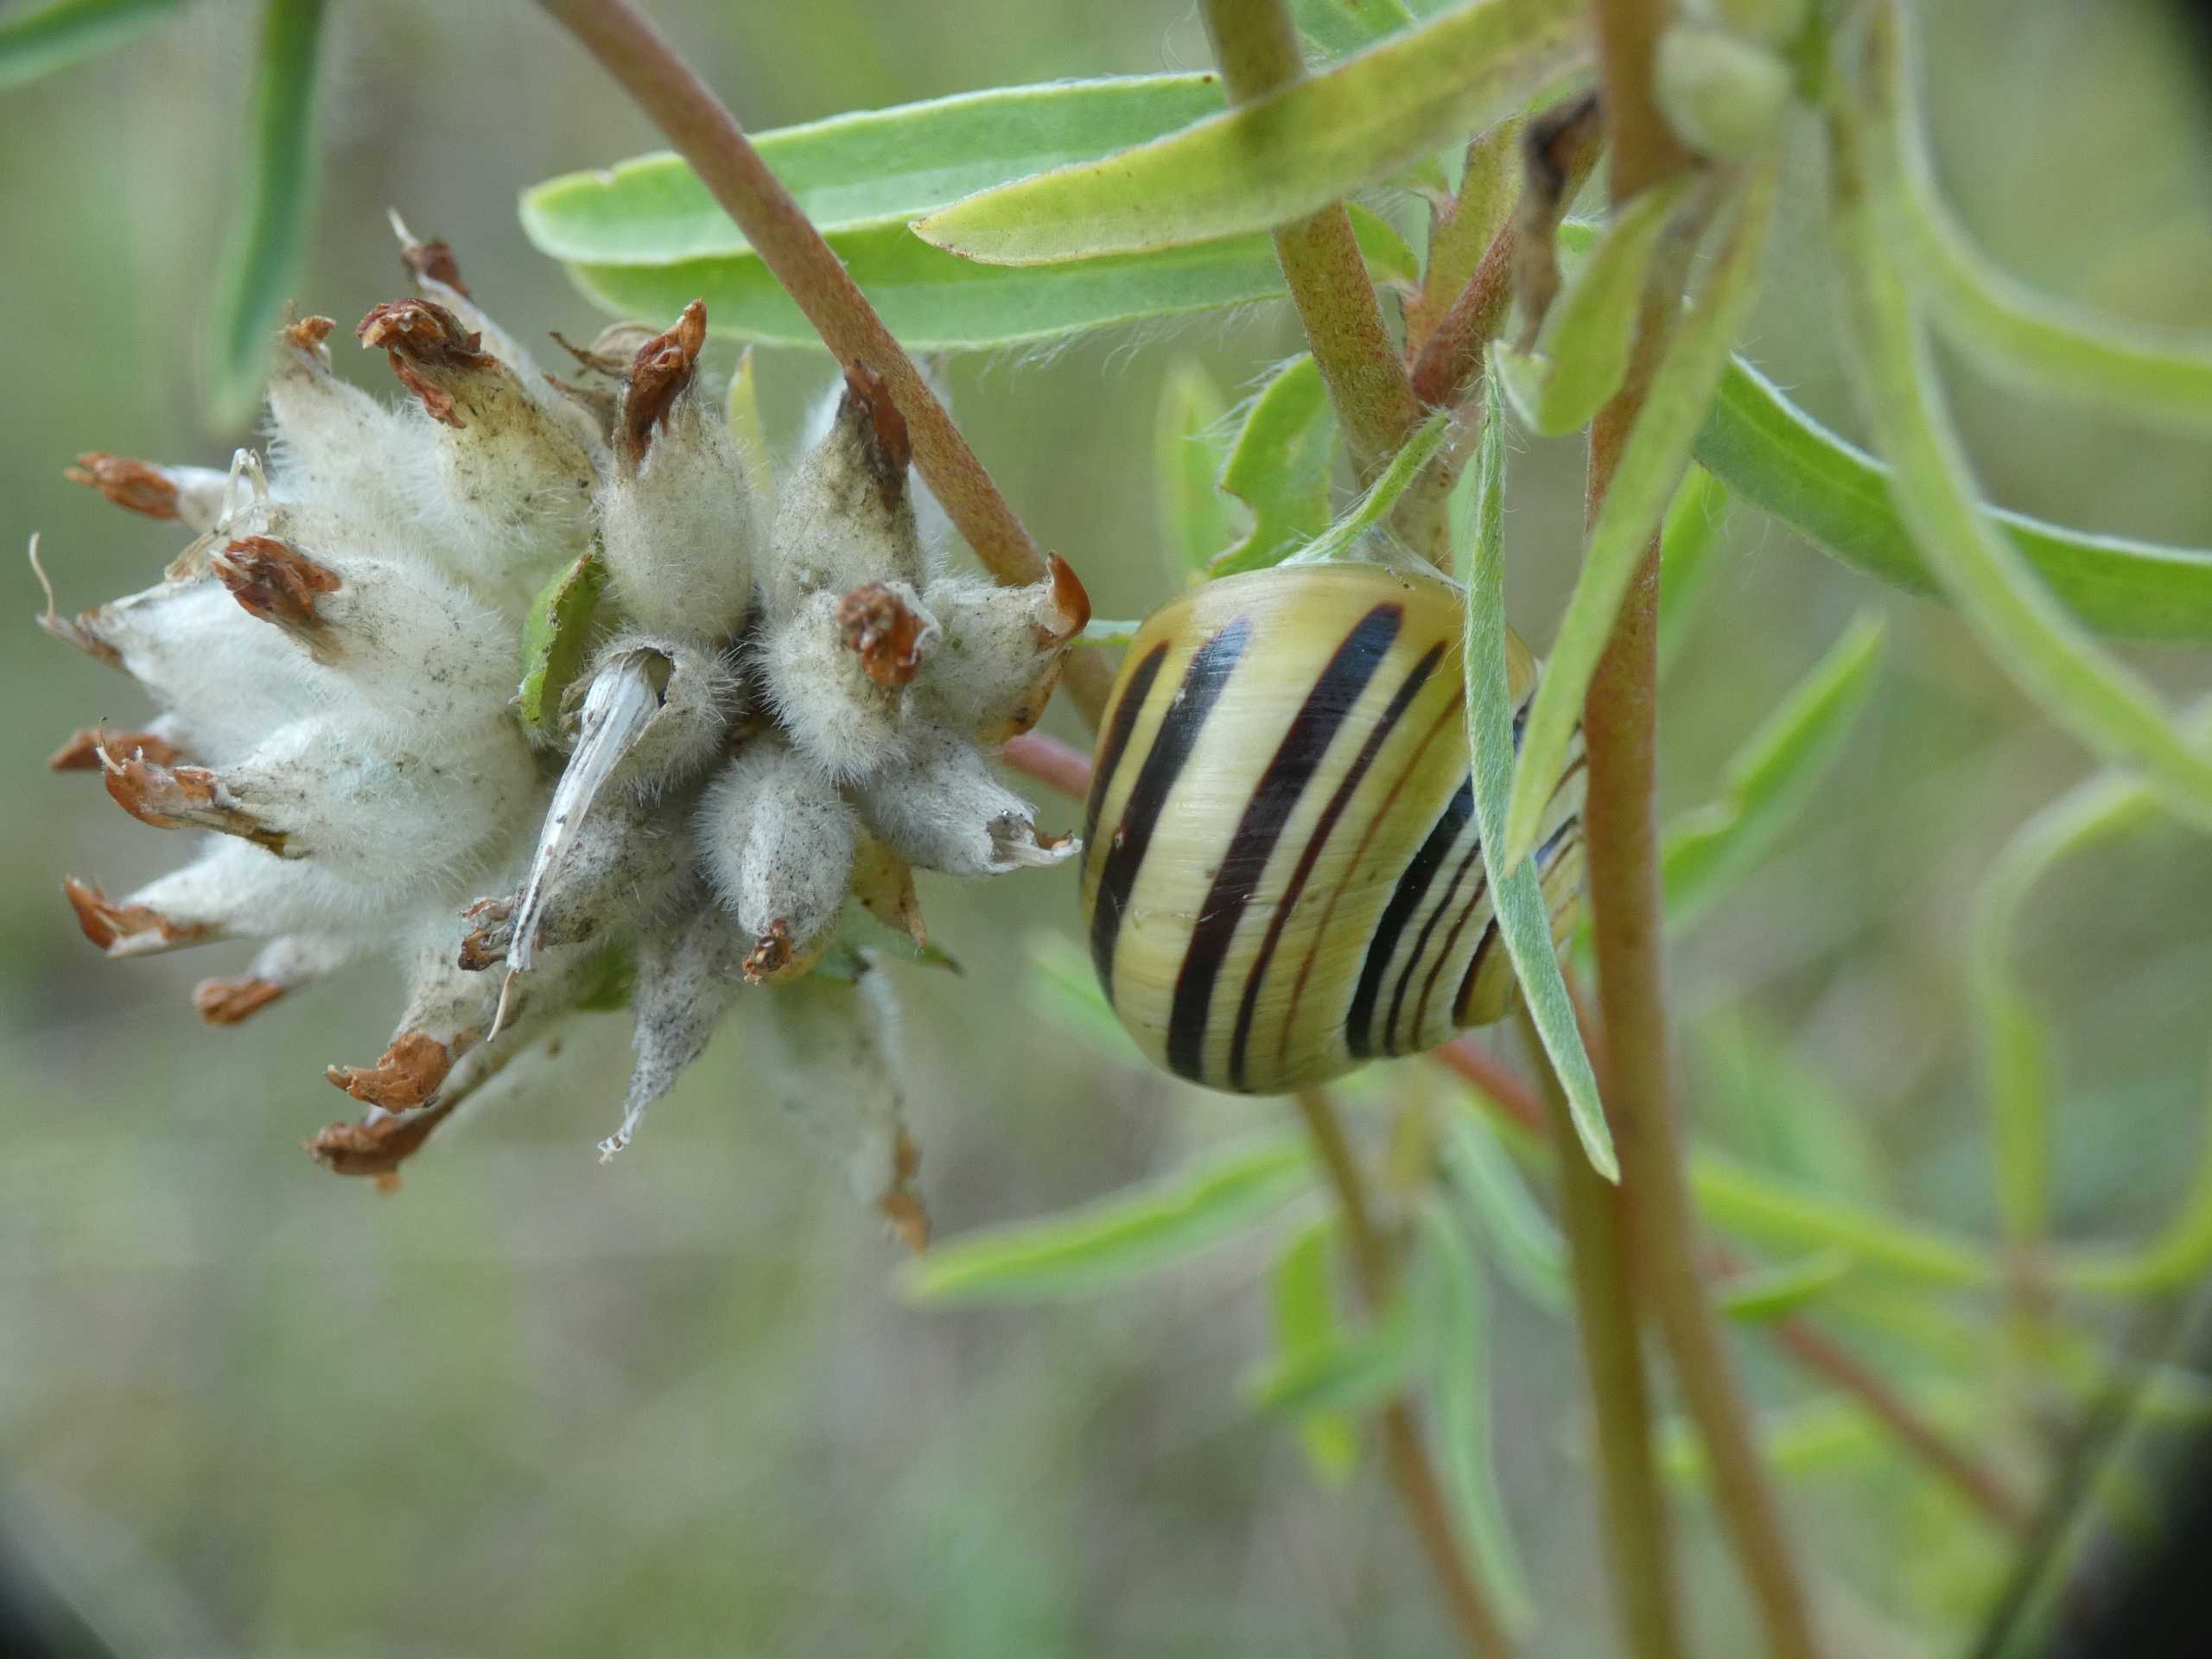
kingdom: Animalia
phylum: Mollusca
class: Gastropoda
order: Stylommatophora
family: Helicidae
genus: Cepaea
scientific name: Cepaea hortensis
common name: Havesnegl
